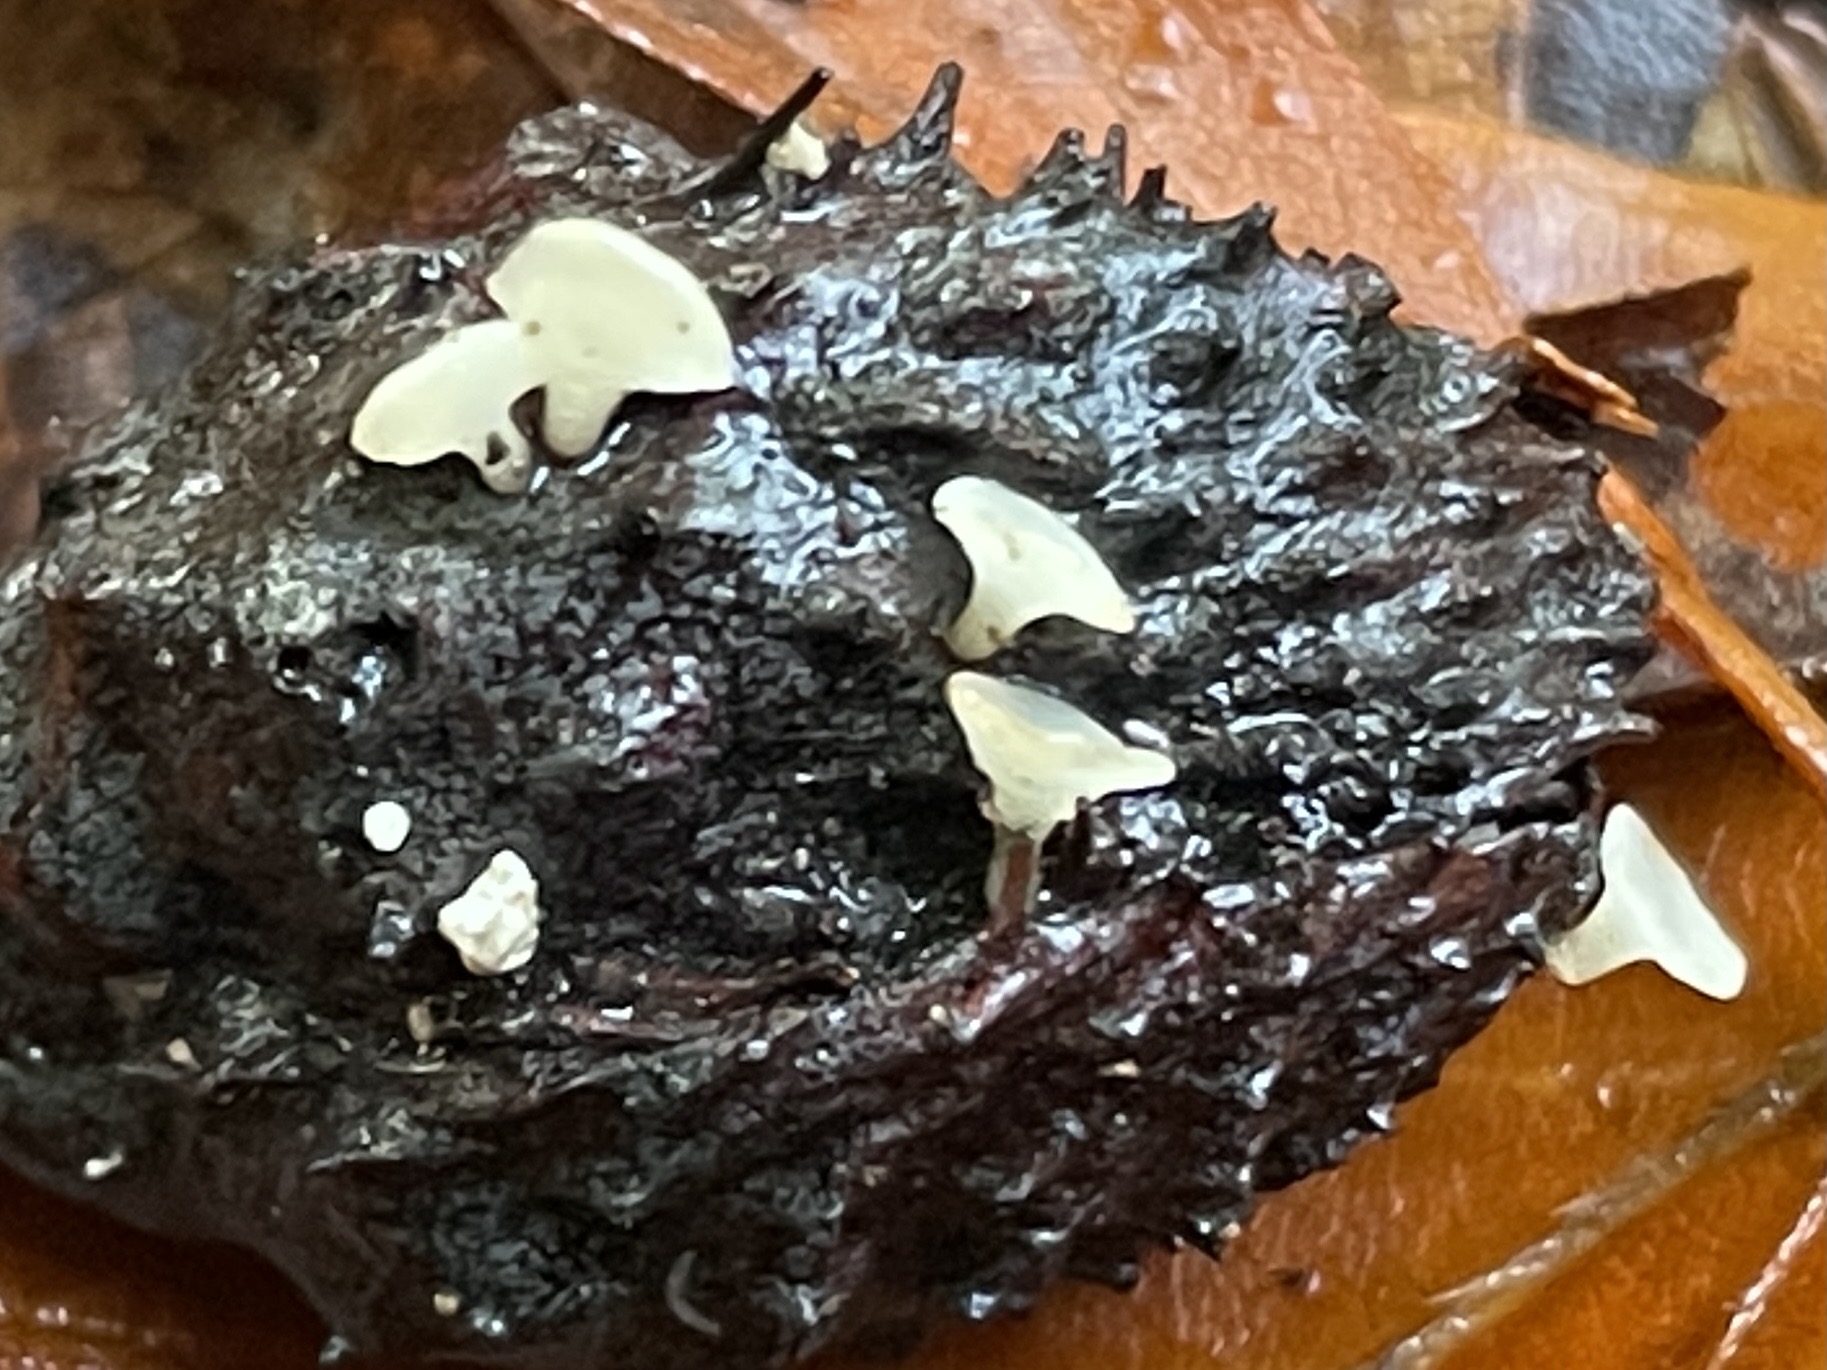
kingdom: Fungi
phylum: Ascomycota
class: Leotiomycetes
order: Helotiales
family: Helotiaceae
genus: Hymenoscyphus
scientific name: Hymenoscyphus fagineus
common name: vellugtende stilkskive
